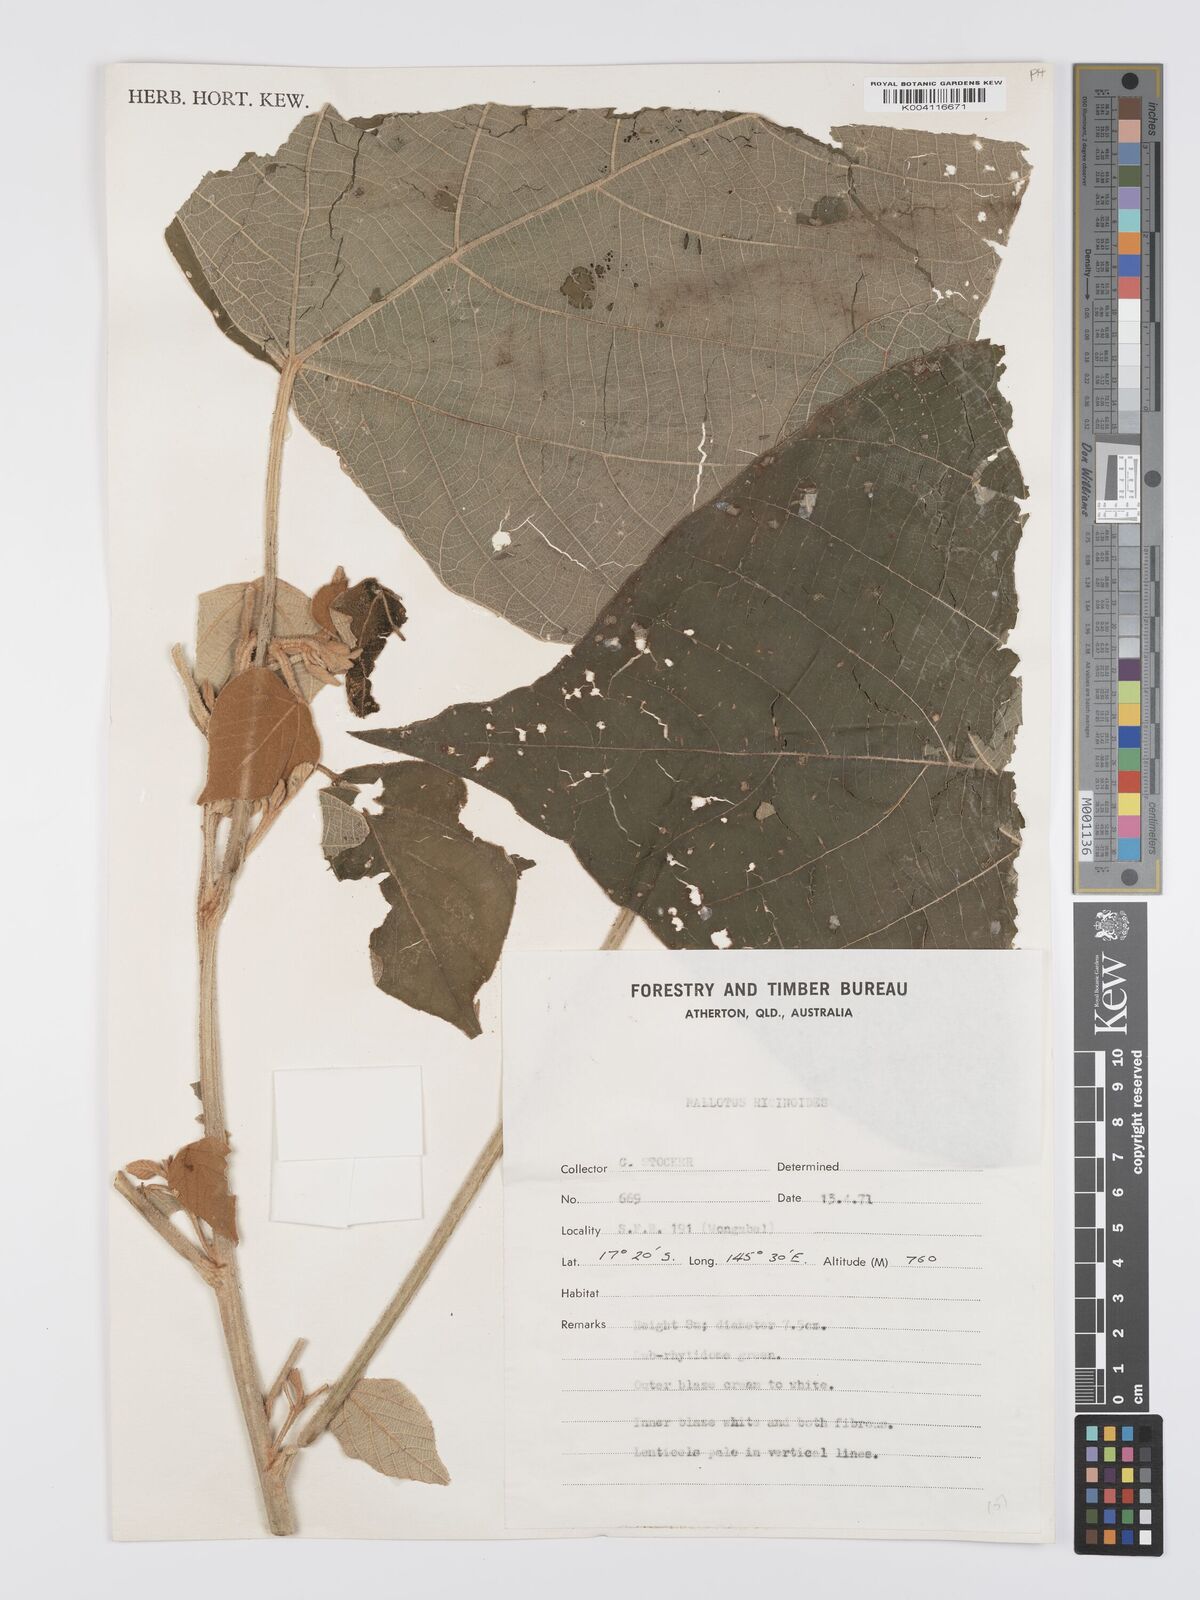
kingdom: Plantae
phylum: Tracheophyta
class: Magnoliopsida
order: Malpighiales
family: Euphorbiaceae
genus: Mallotus
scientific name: Mallotus mollissimus
